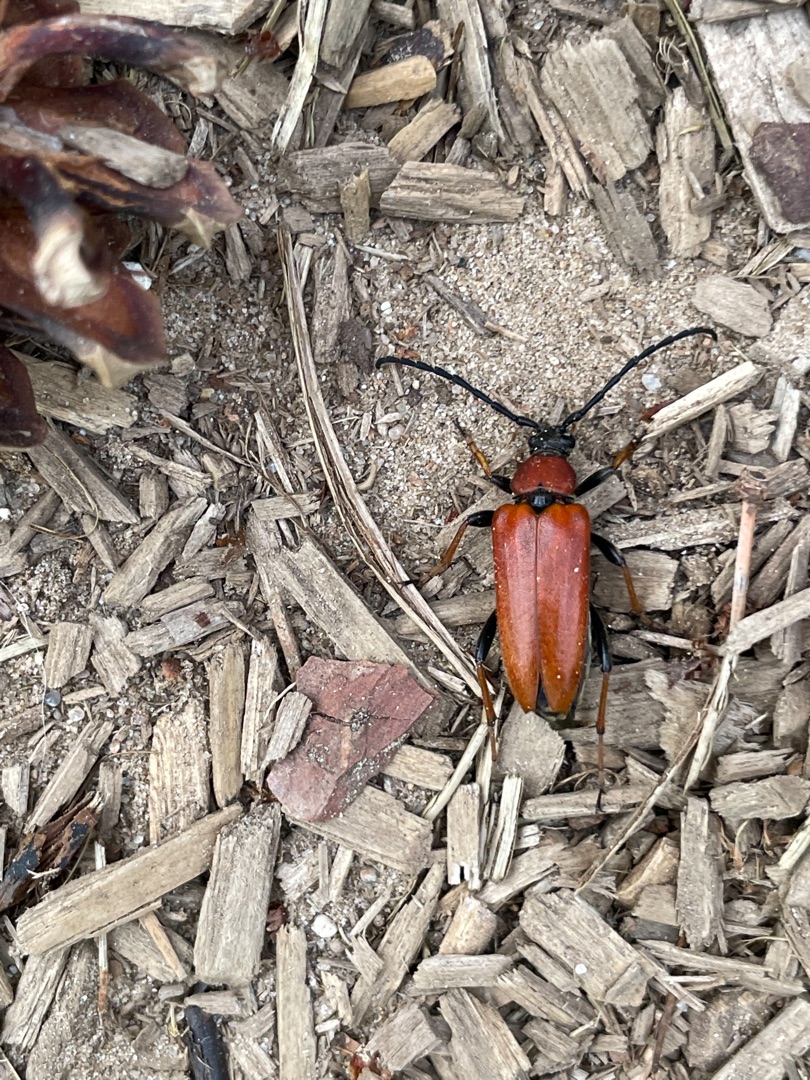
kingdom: Animalia
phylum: Arthropoda
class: Insecta
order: Coleoptera
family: Cerambycidae
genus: Stictoleptura
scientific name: Stictoleptura rubra
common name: Rød blomsterbuk
